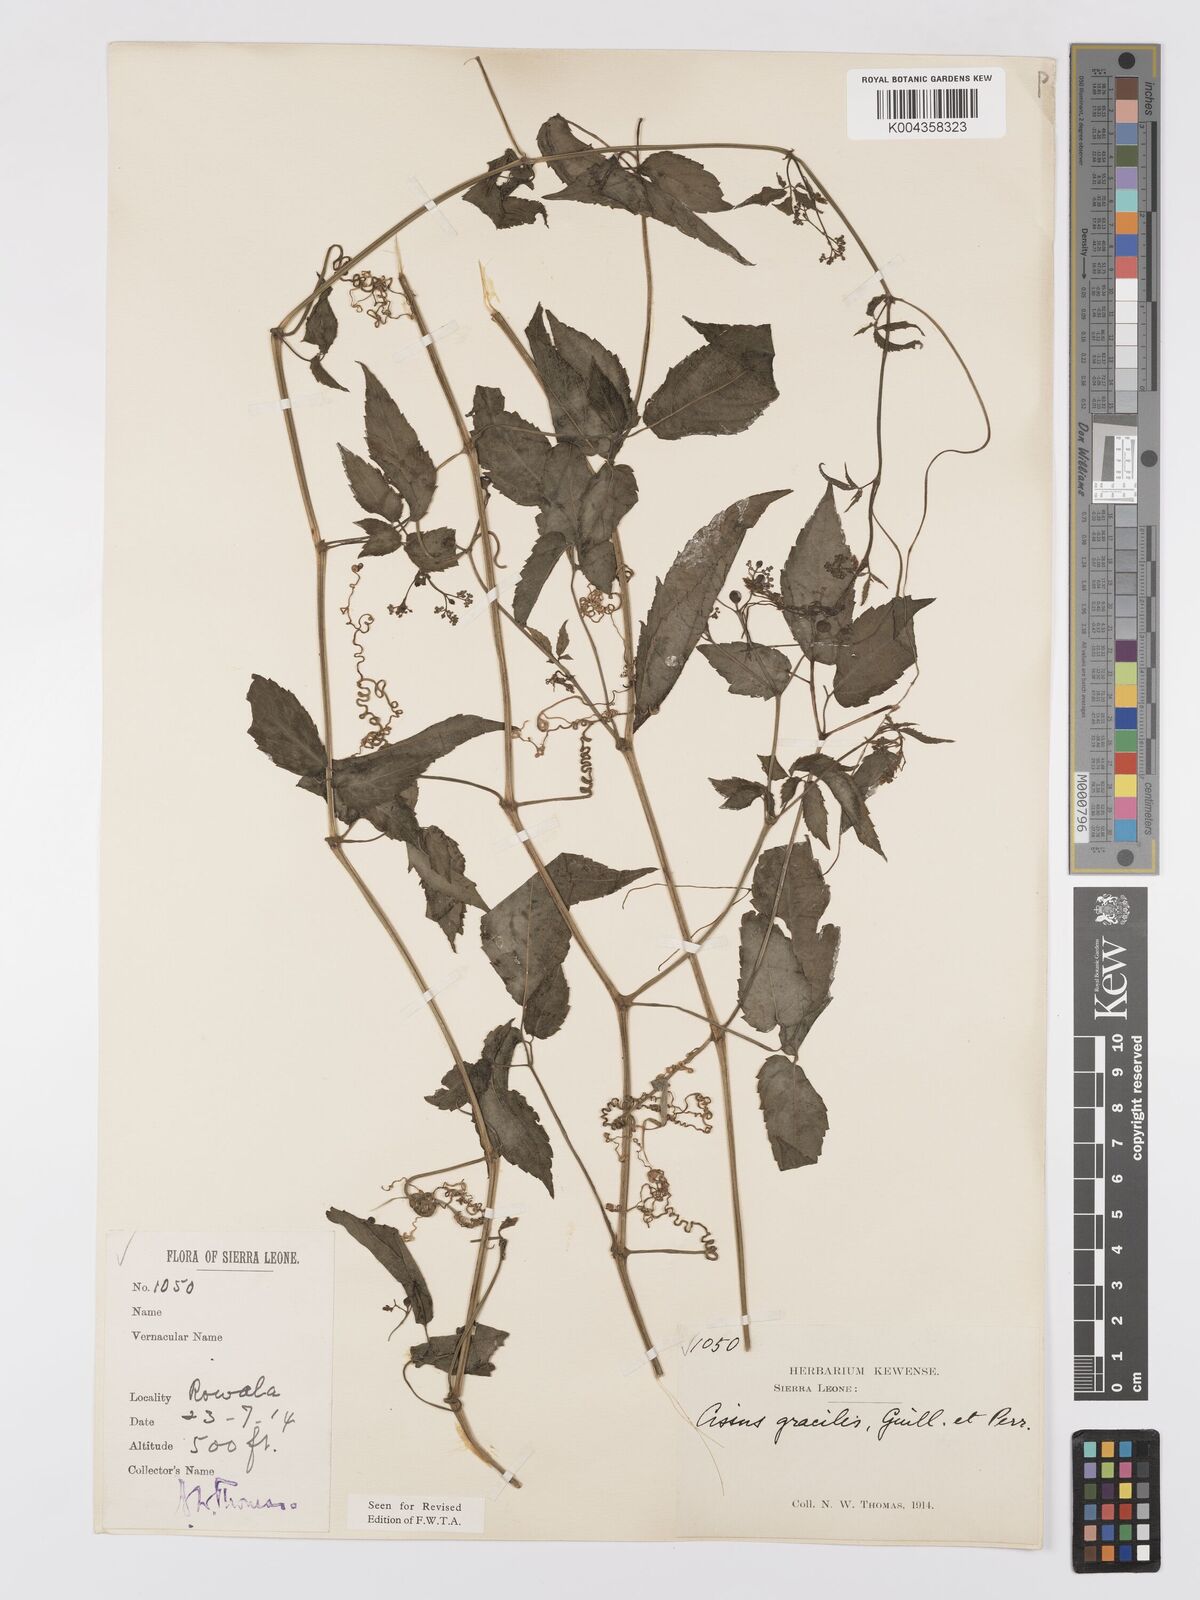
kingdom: Plantae
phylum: Tracheophyta
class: Magnoliopsida
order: Vitales
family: Vitaceae
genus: Afrocayratia
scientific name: Afrocayratia gracilis
